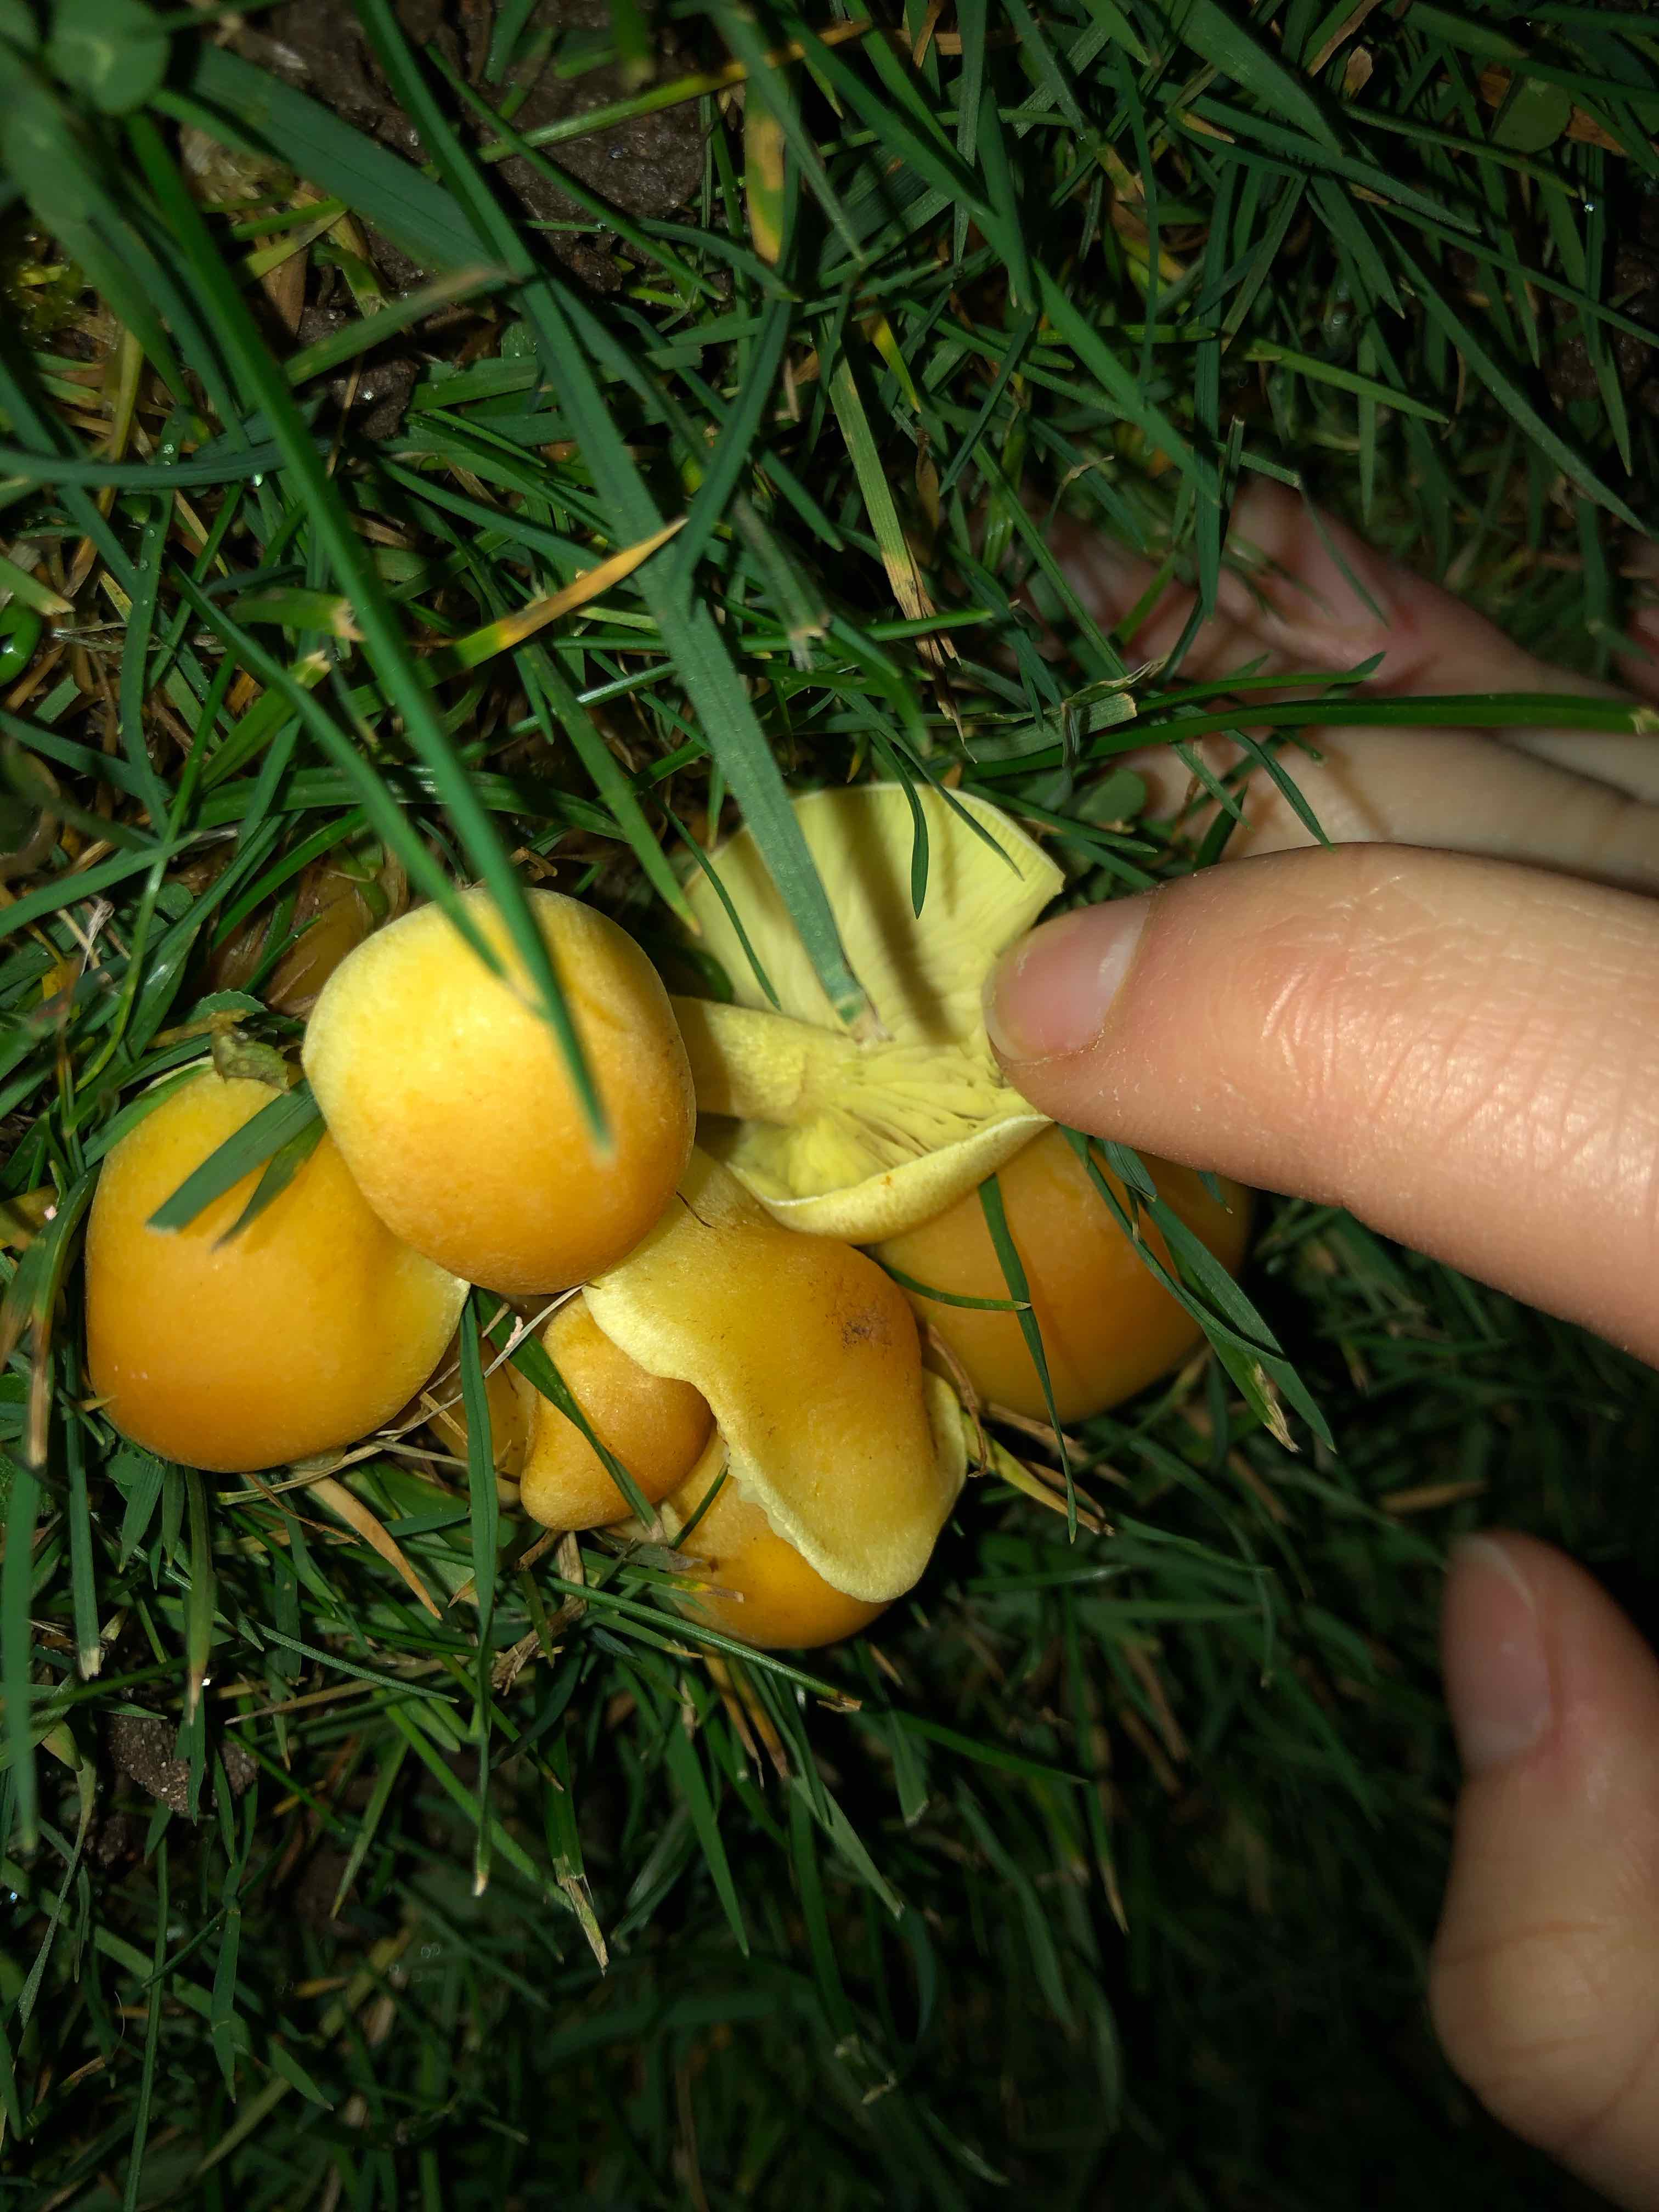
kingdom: Fungi
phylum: Basidiomycota
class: Agaricomycetes
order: Agaricales
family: Strophariaceae
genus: Hypholoma
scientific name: Hypholoma fasciculare
